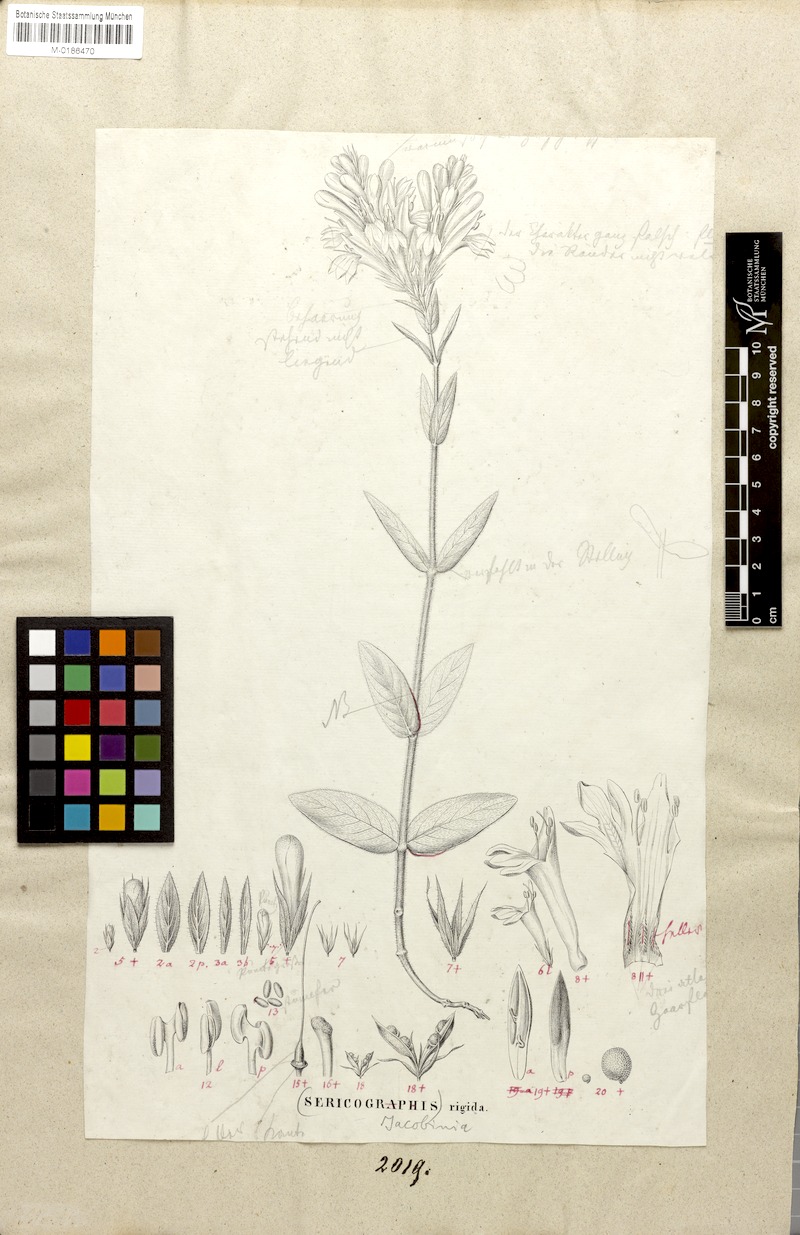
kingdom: Plantae
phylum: Tracheophyta
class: Magnoliopsida
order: Lamiales
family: Acanthaceae
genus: Dianthera
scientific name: Dianthera rigida
